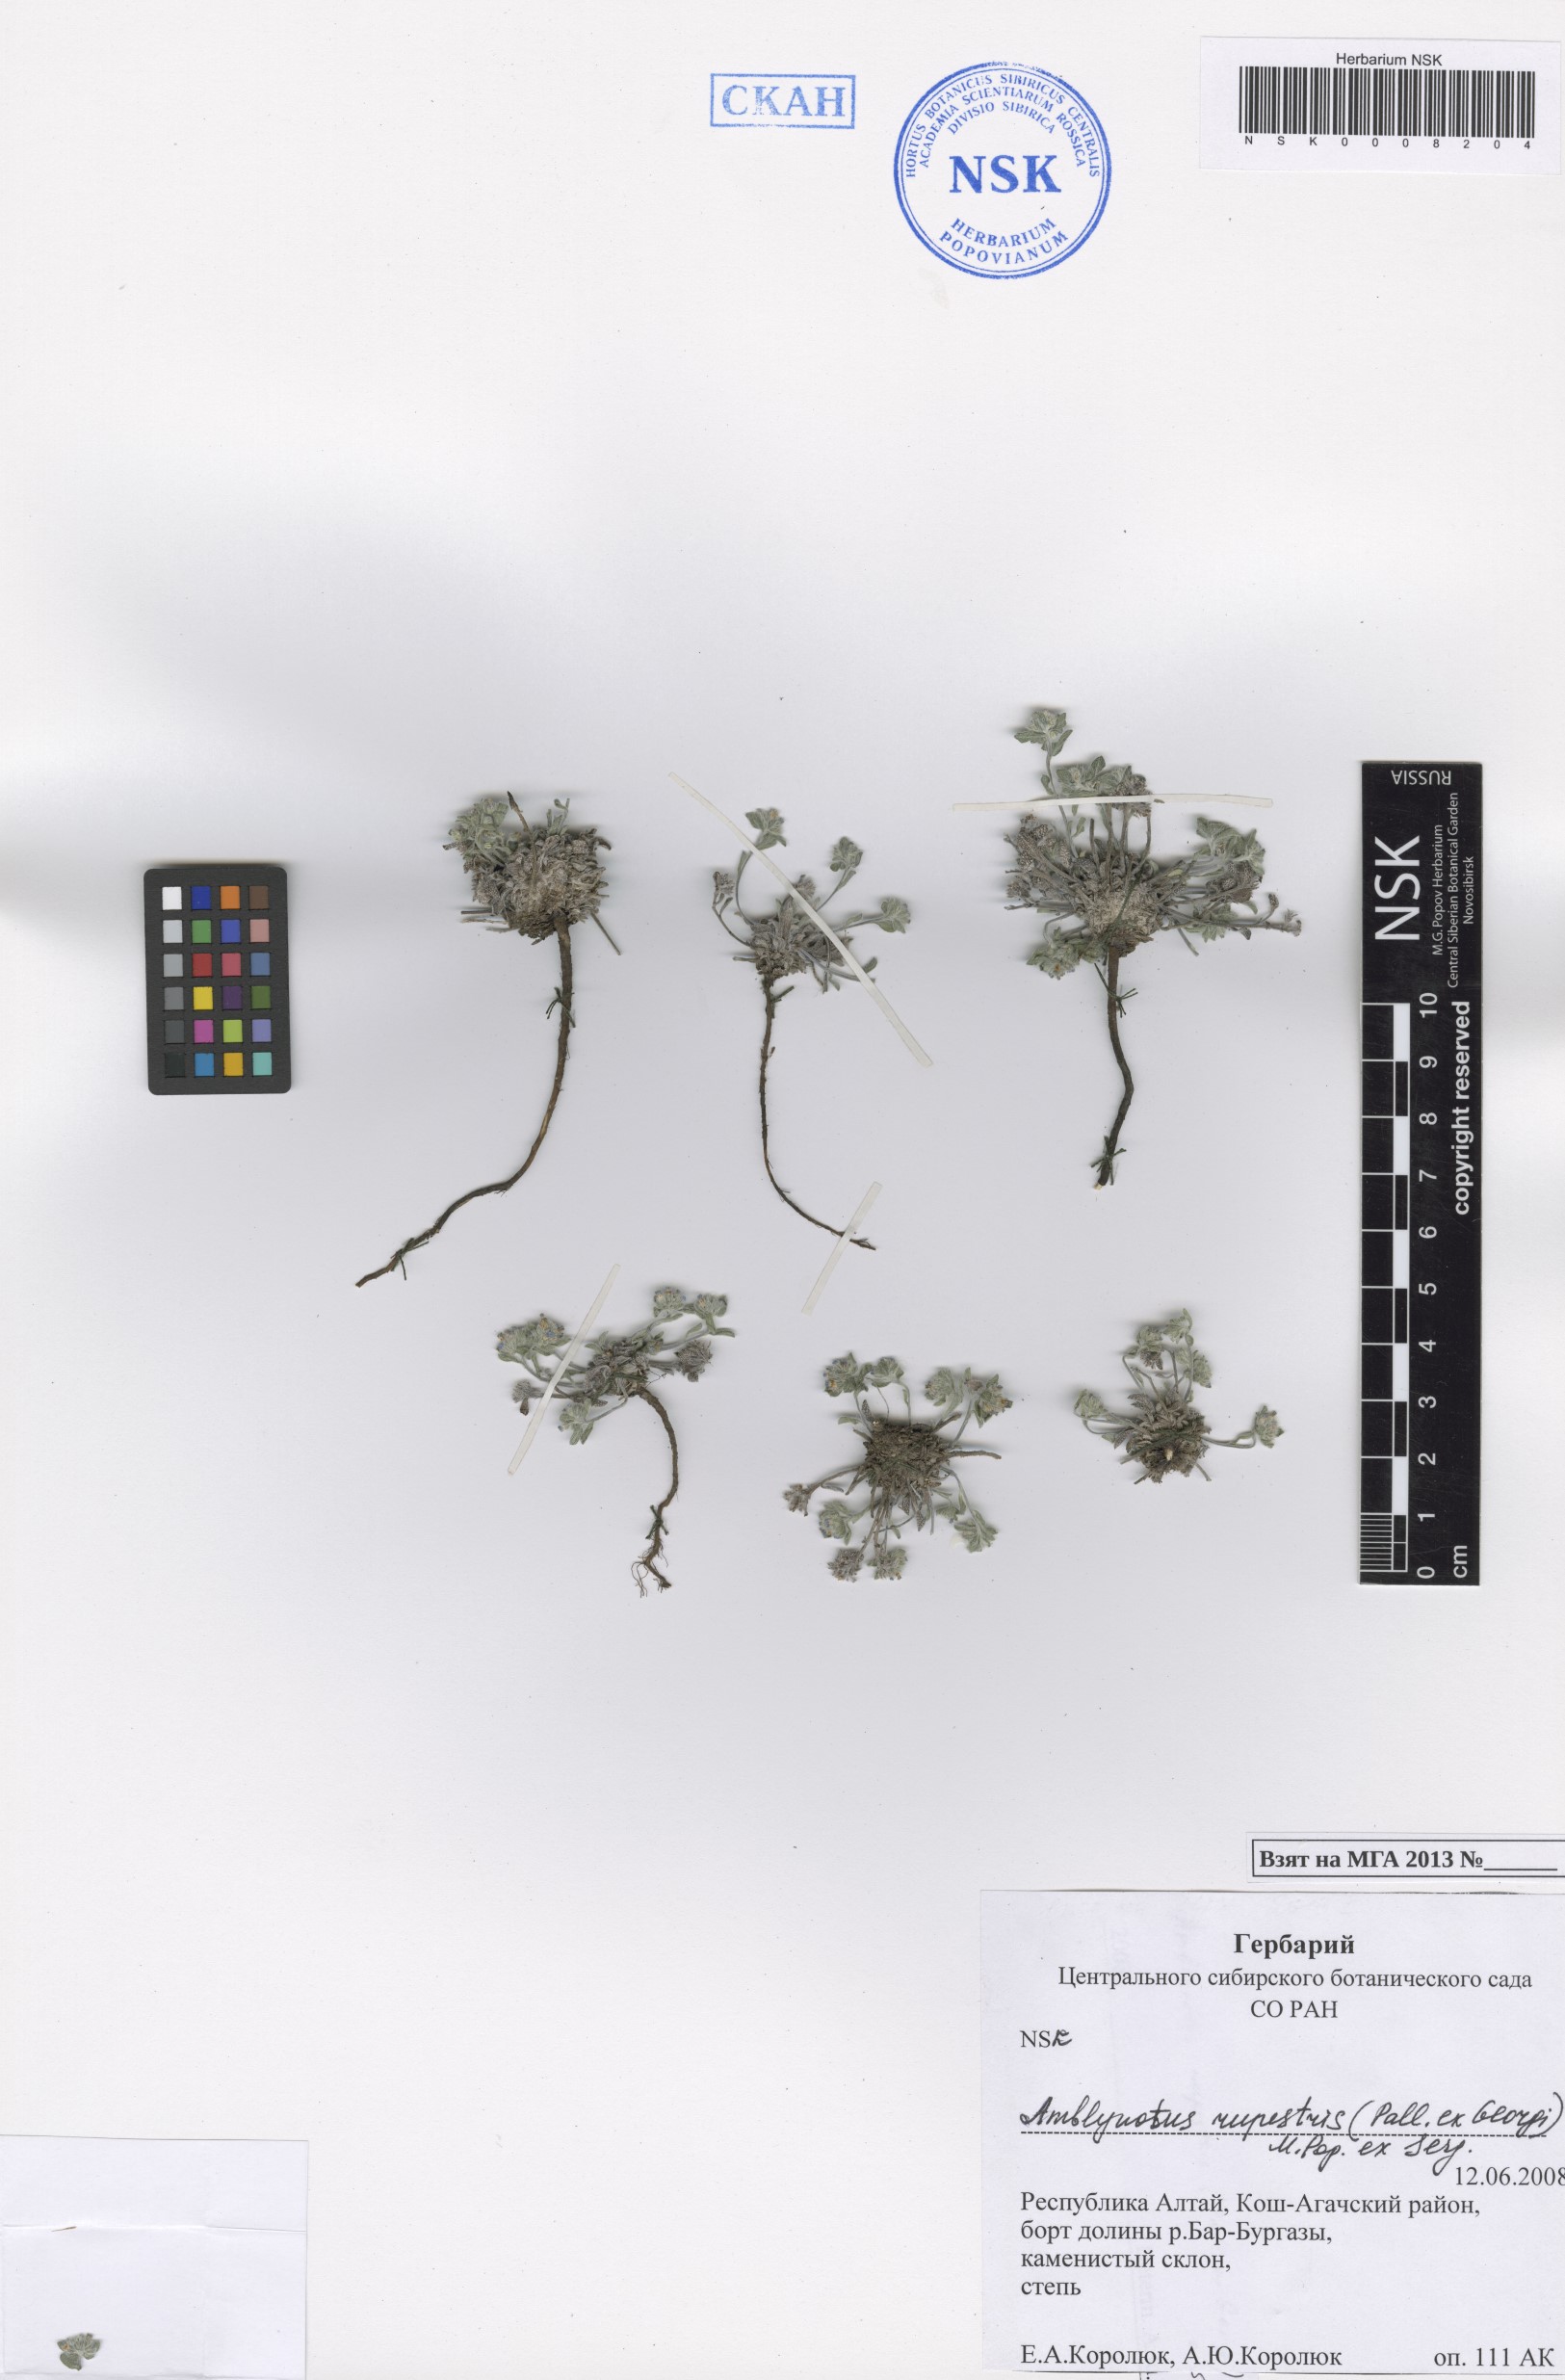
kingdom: Plantae
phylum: Tracheophyta
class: Magnoliopsida
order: Boraginales
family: Boraginaceae
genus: Eritrichium
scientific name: Eritrichium rupestre
